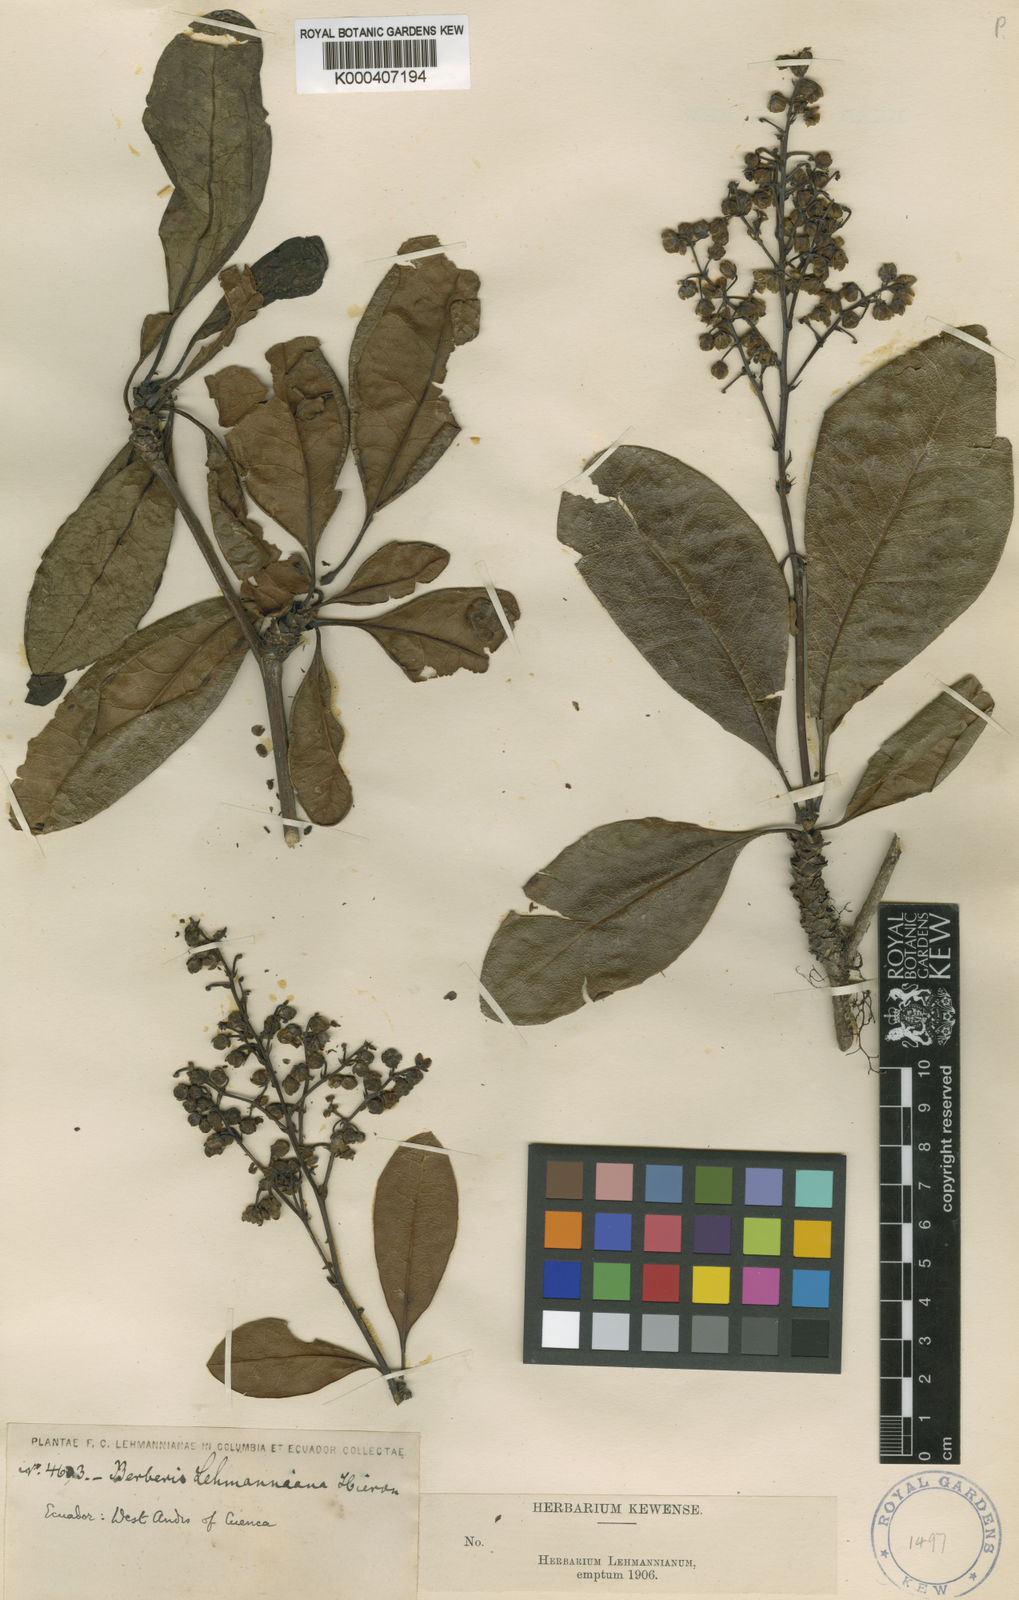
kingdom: Plantae
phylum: Tracheophyta
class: Magnoliopsida
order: Ranunculales
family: Berberidaceae
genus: Berberis
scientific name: Berberis lehmannii
